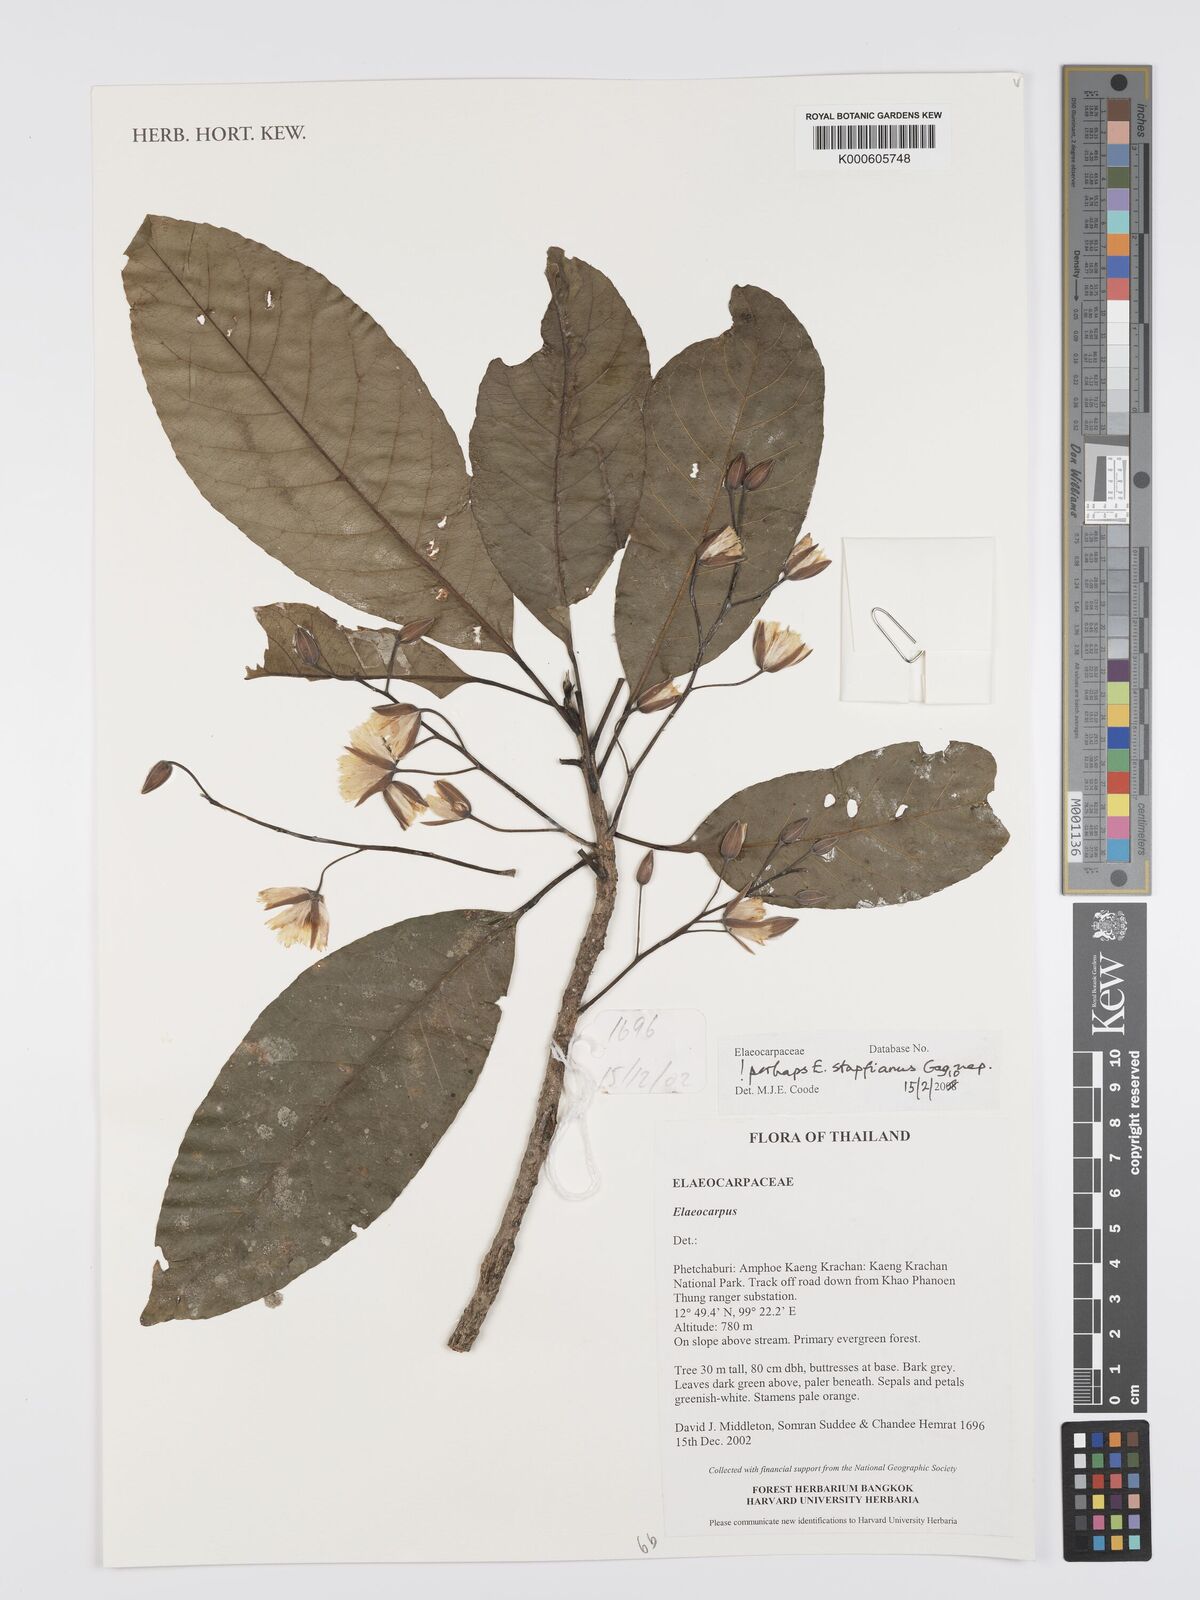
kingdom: Plantae
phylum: Tracheophyta
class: Magnoliopsida
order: Oxalidales
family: Elaeocarpaceae
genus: Elaeocarpus
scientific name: Elaeocarpus stapfianus
